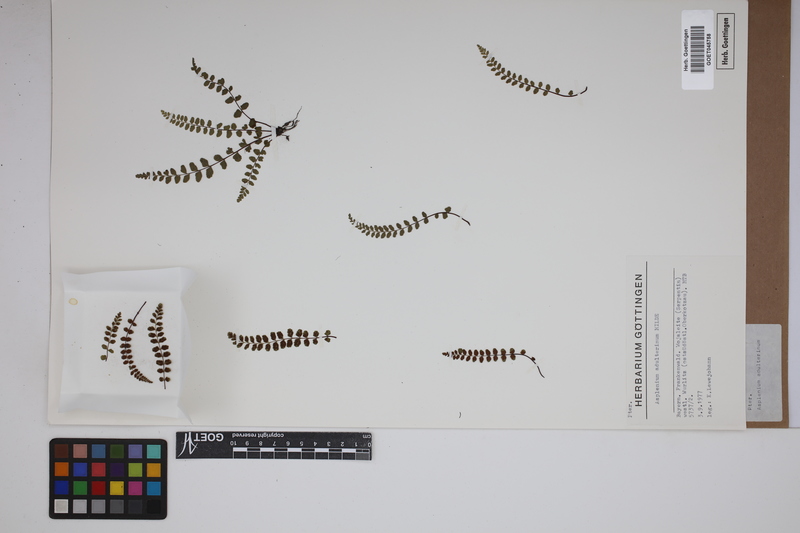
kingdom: Plantae
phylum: Tracheophyta
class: Polypodiopsida
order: Polypodiales
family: Aspleniaceae
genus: Asplenium
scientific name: Asplenium adulterinum
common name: Adulterated spleenwort
